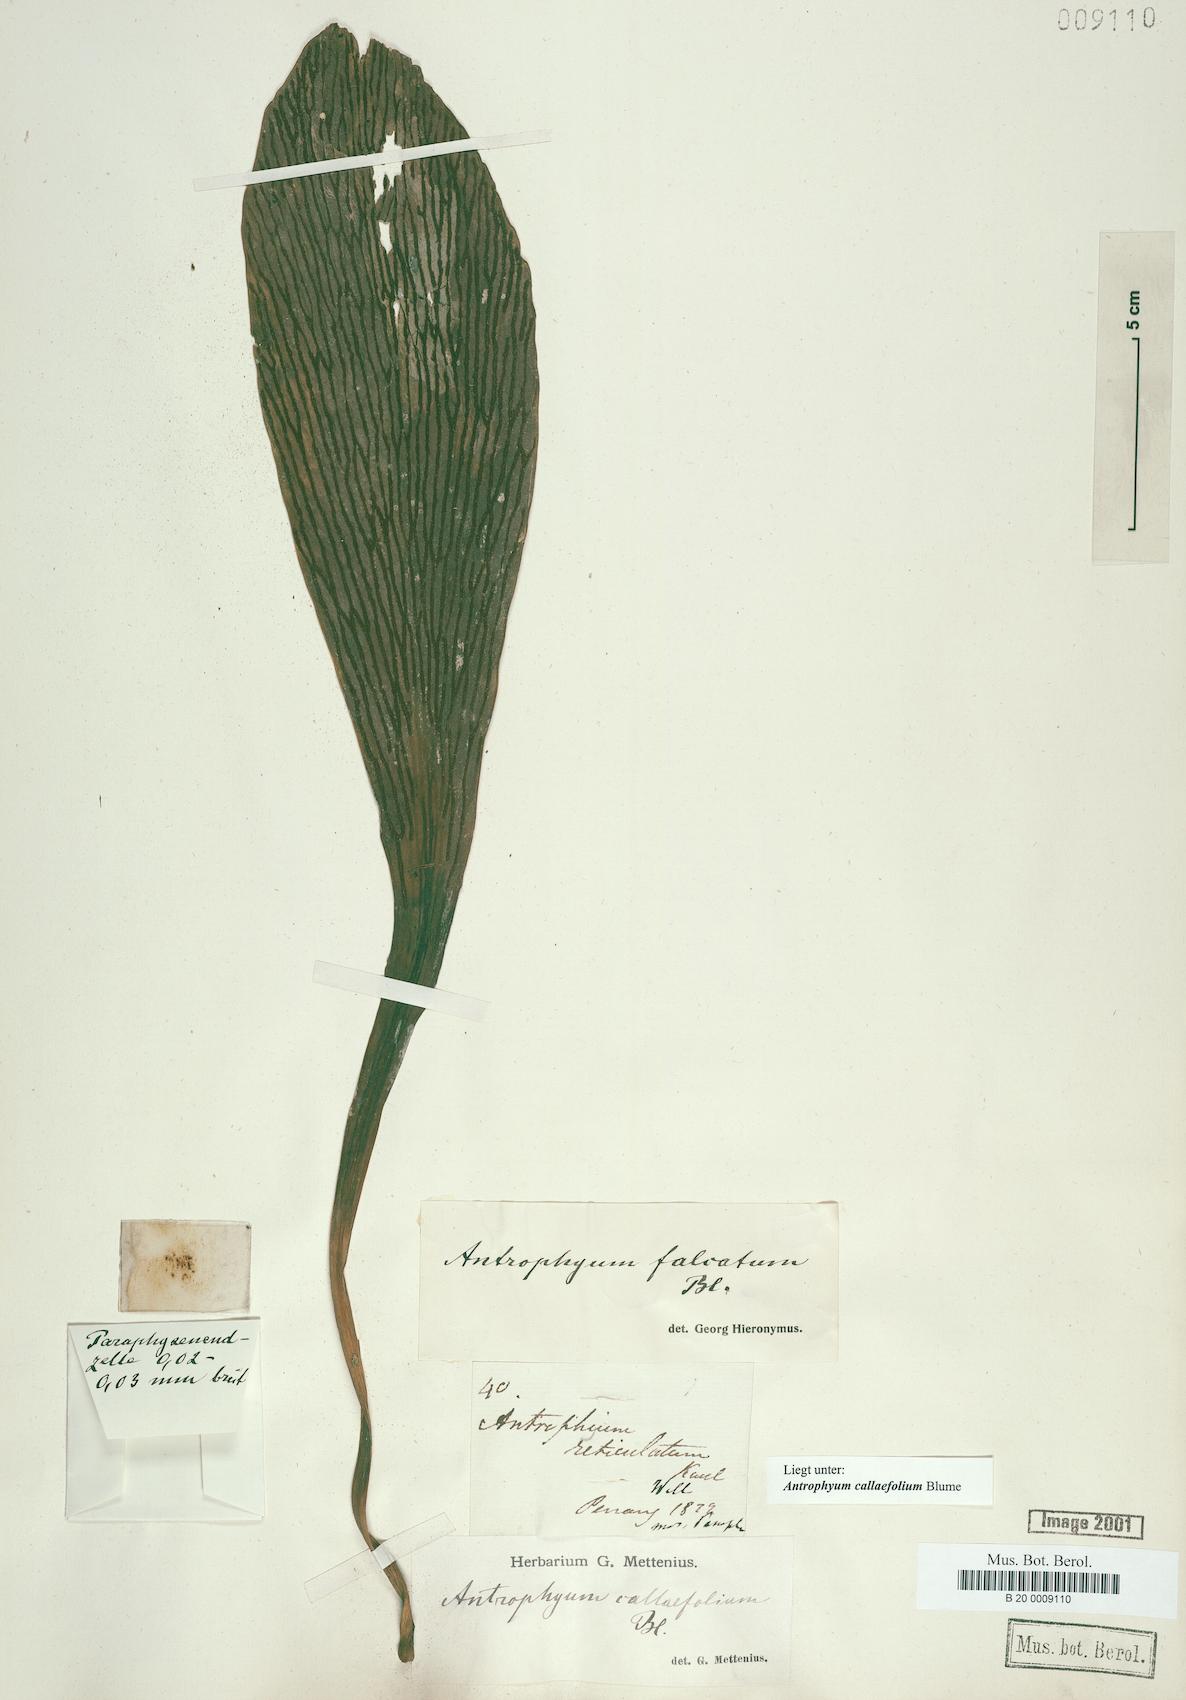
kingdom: Plantae
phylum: Tracheophyta
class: Polypodiopsida
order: Polypodiales
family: Pteridaceae
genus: Antrophyum
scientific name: Antrophyum callifolium
